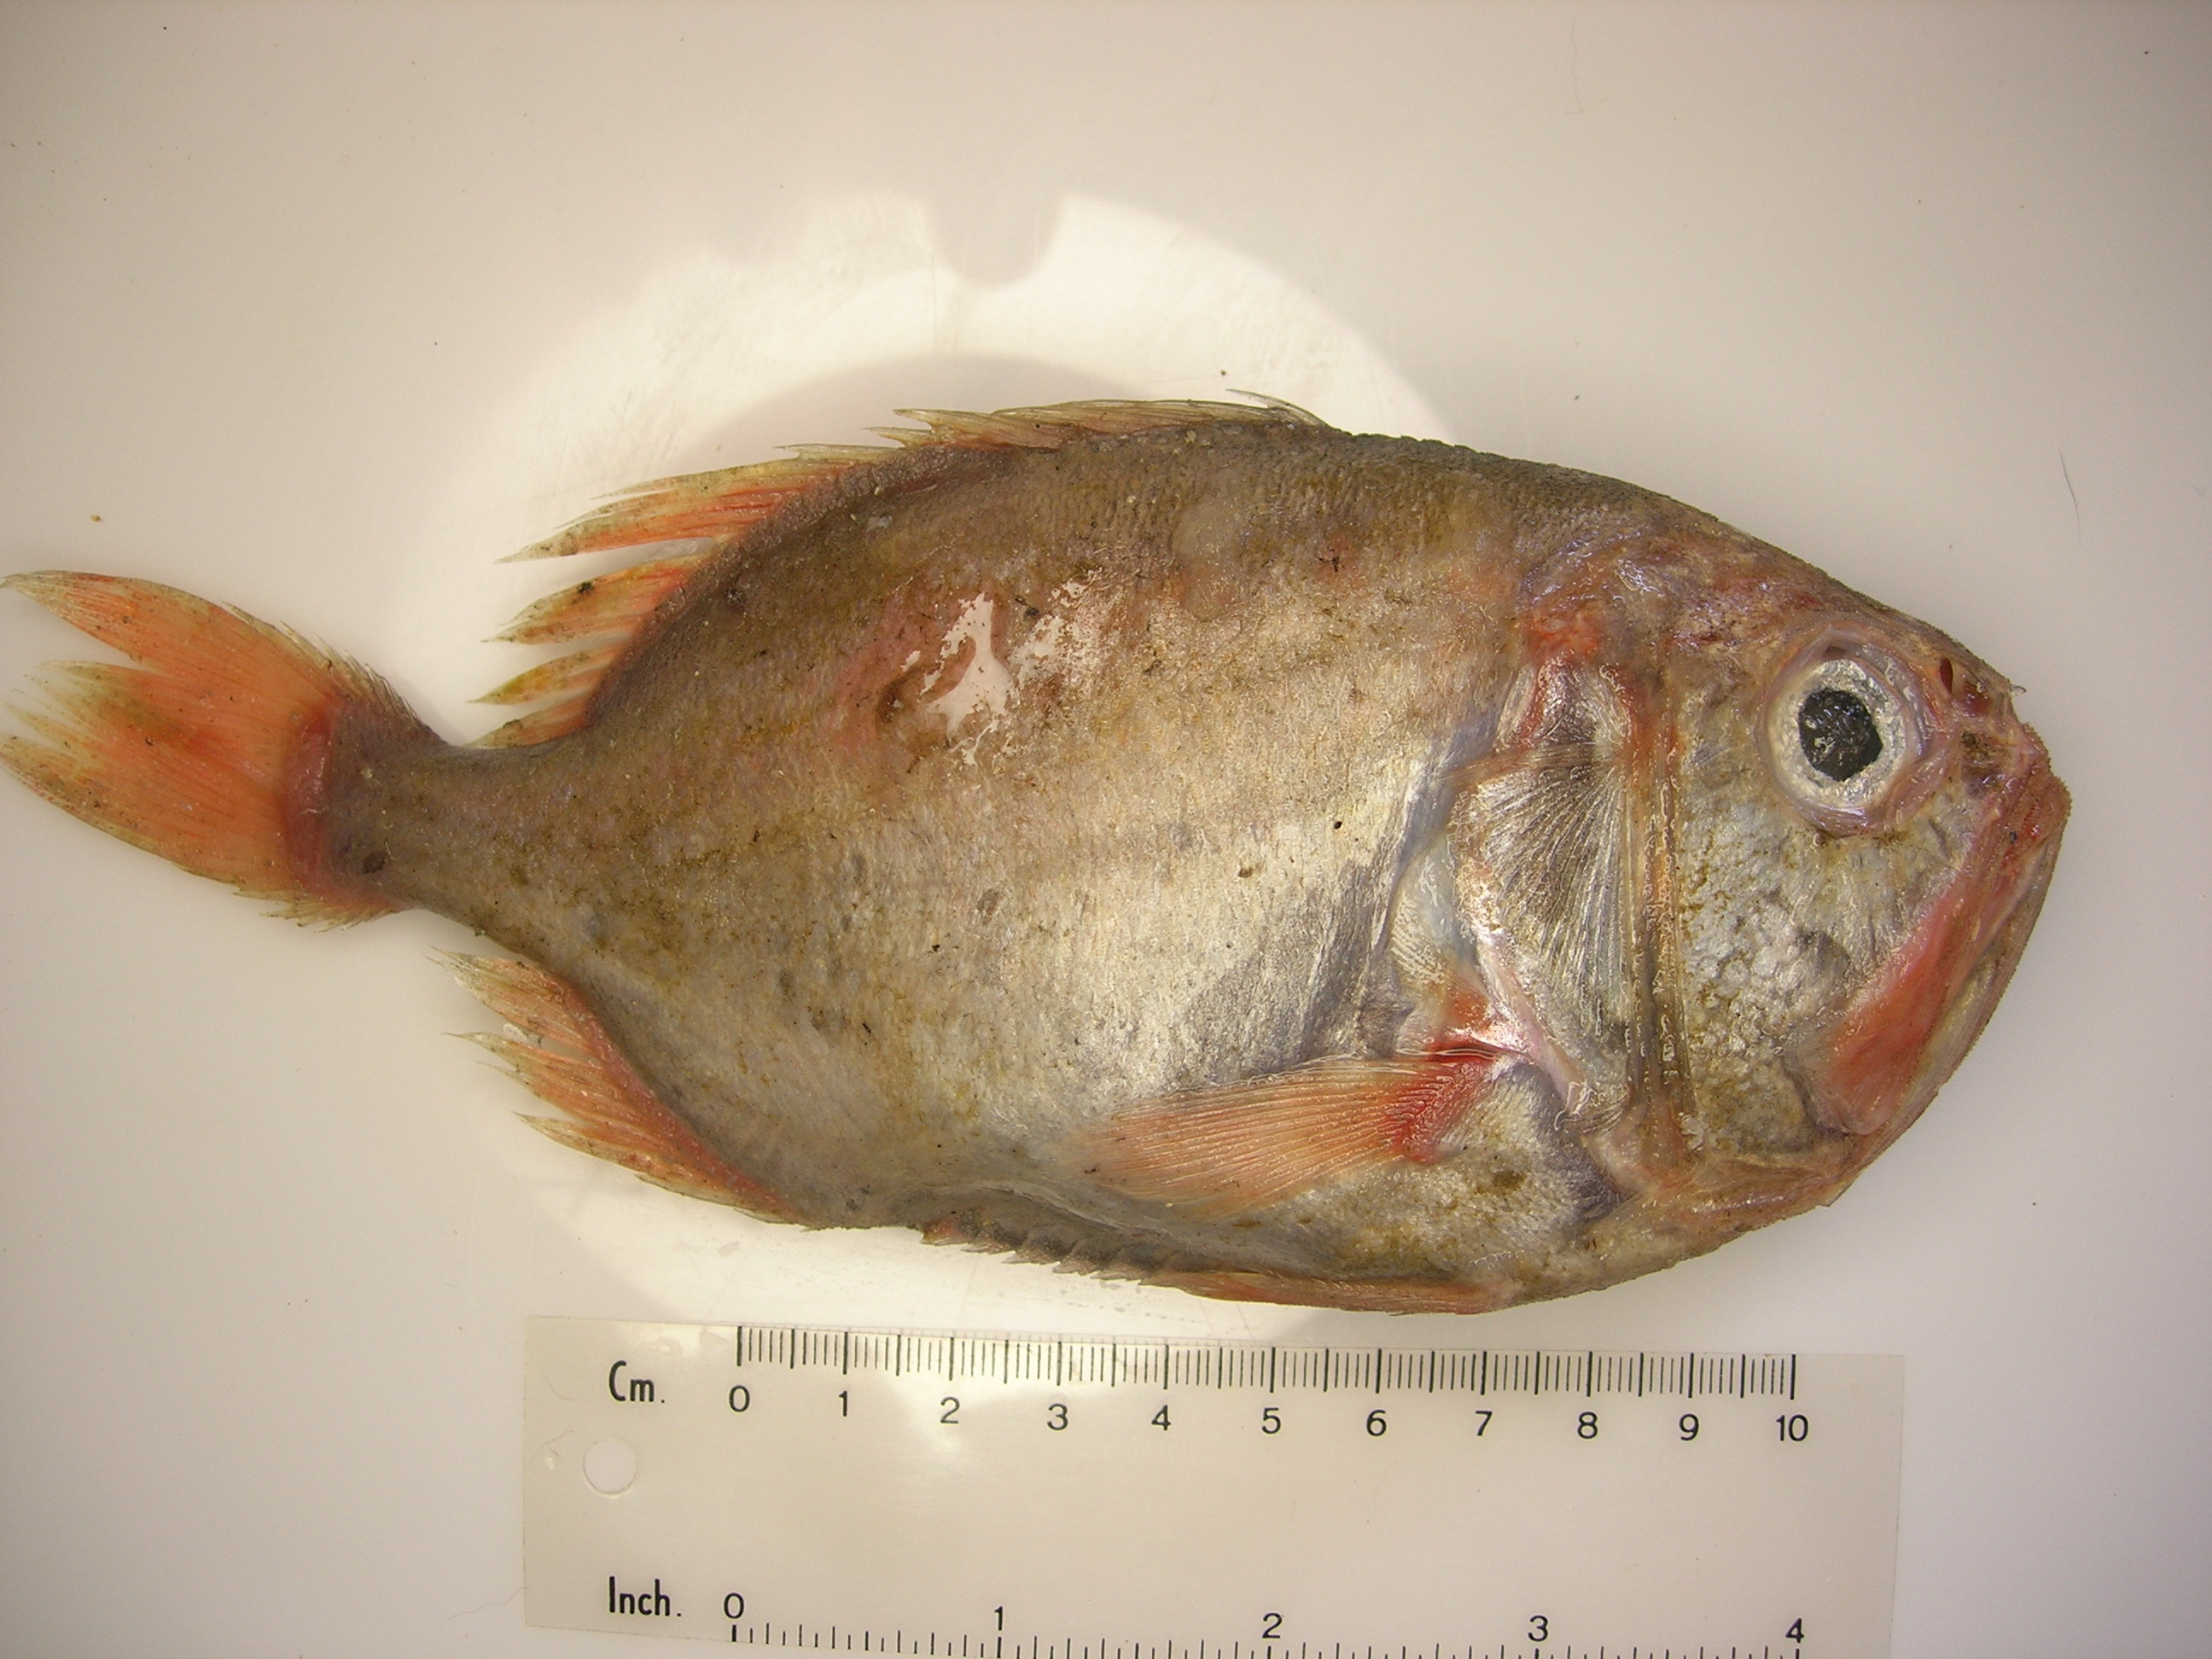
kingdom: Animalia
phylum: Chordata
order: Beryciformes
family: Trachichthyidae
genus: Gephyroberyx
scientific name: Gephyroberyx darwinii
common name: Big roughy
